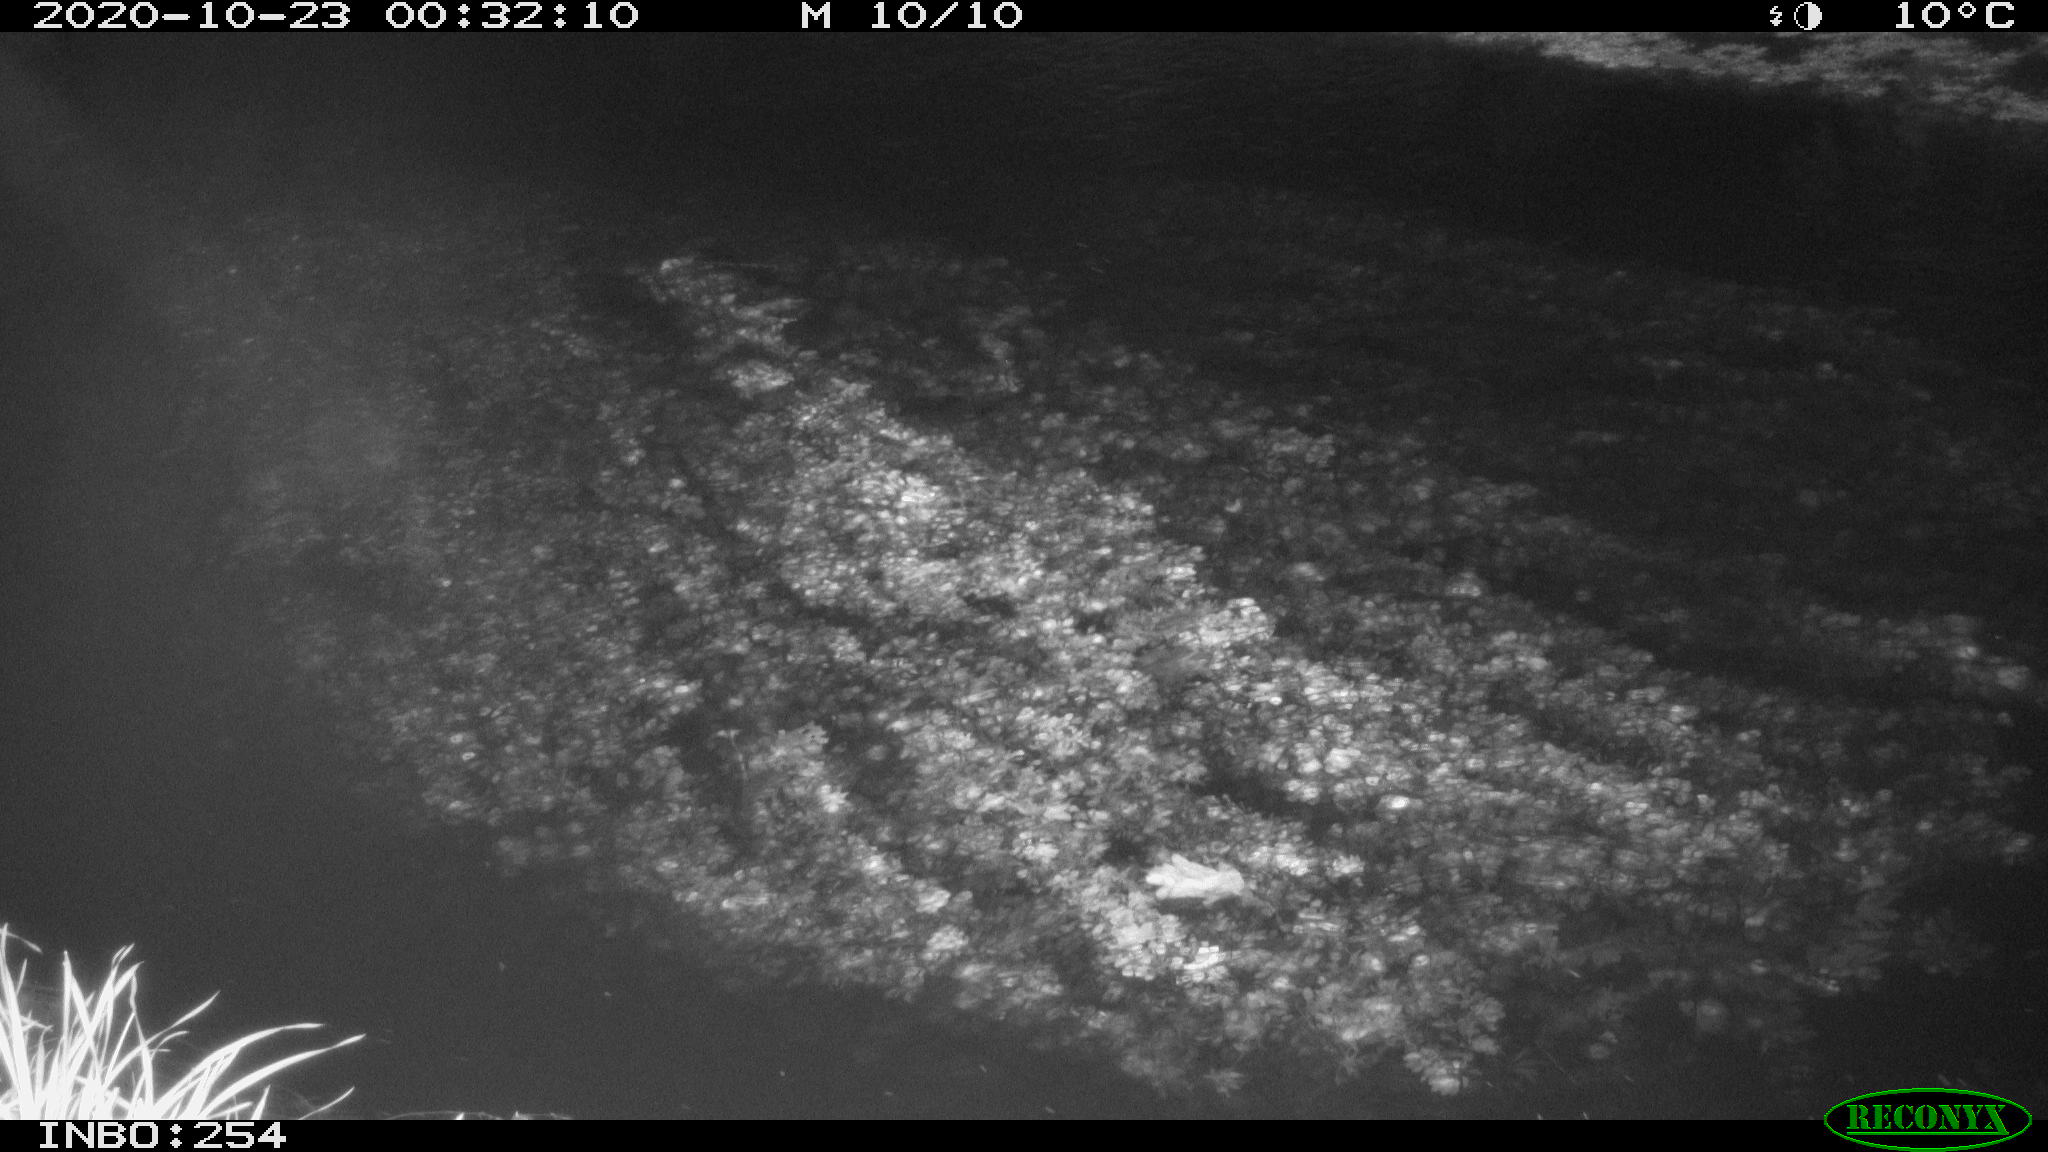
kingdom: Animalia
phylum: Chordata
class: Aves
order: Anseriformes
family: Anatidae
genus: Anas
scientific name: Anas platyrhynchos
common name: Mallard
